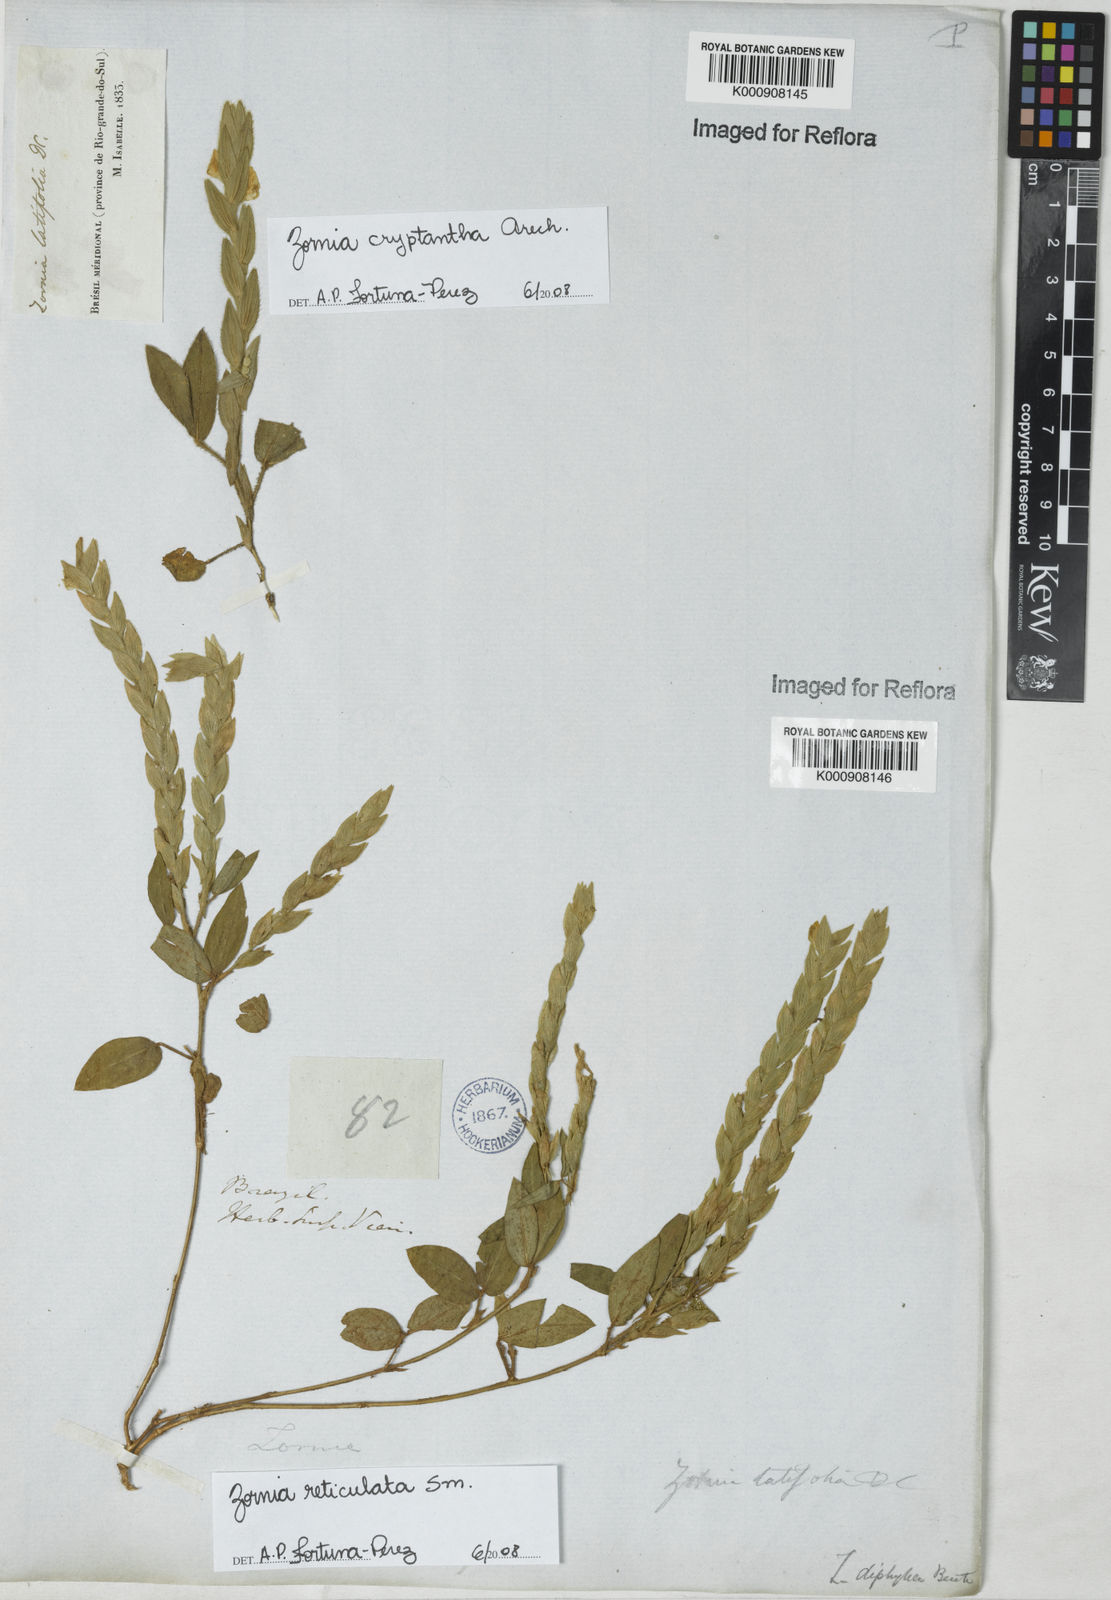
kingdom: Plantae
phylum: Tracheophyta
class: Magnoliopsida
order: Fabales
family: Fabaceae
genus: Zornia
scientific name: Zornia reticulata
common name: Reticulate viperina
